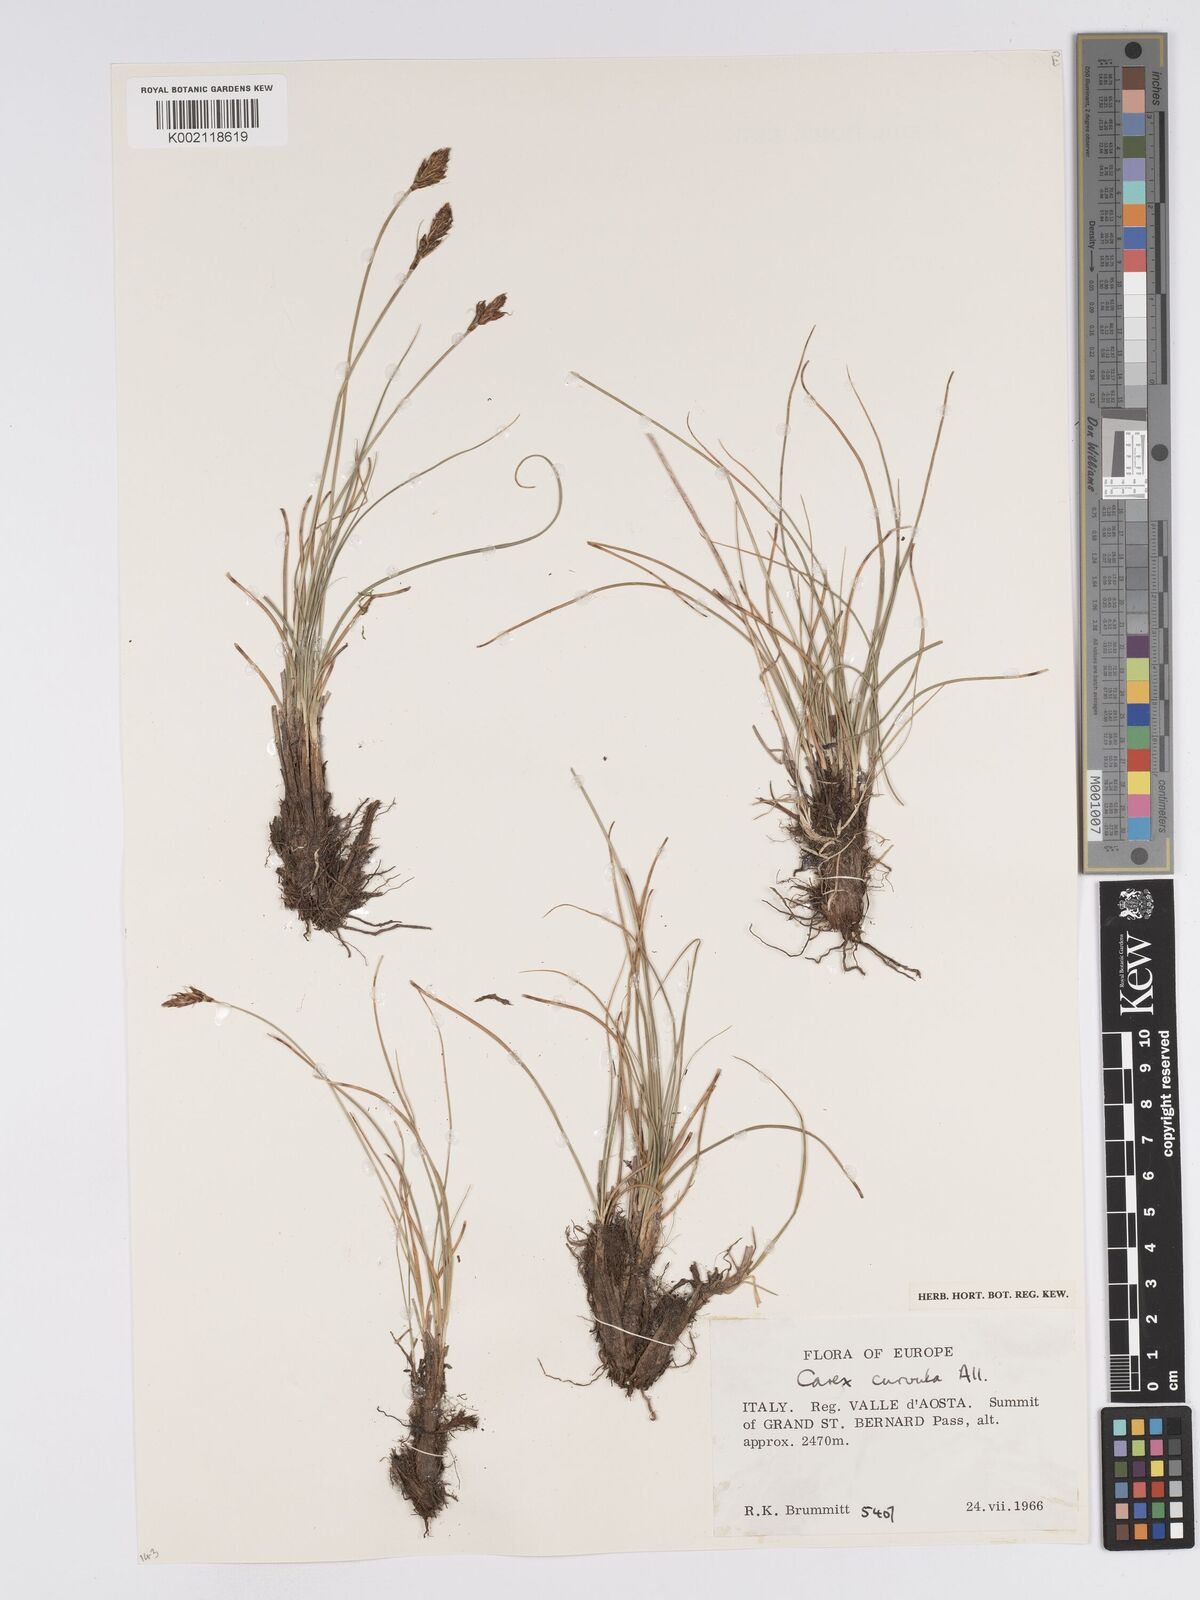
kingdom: Plantae
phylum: Tracheophyta
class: Liliopsida
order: Poales
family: Cyperaceae
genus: Carex
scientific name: Carex curvula
